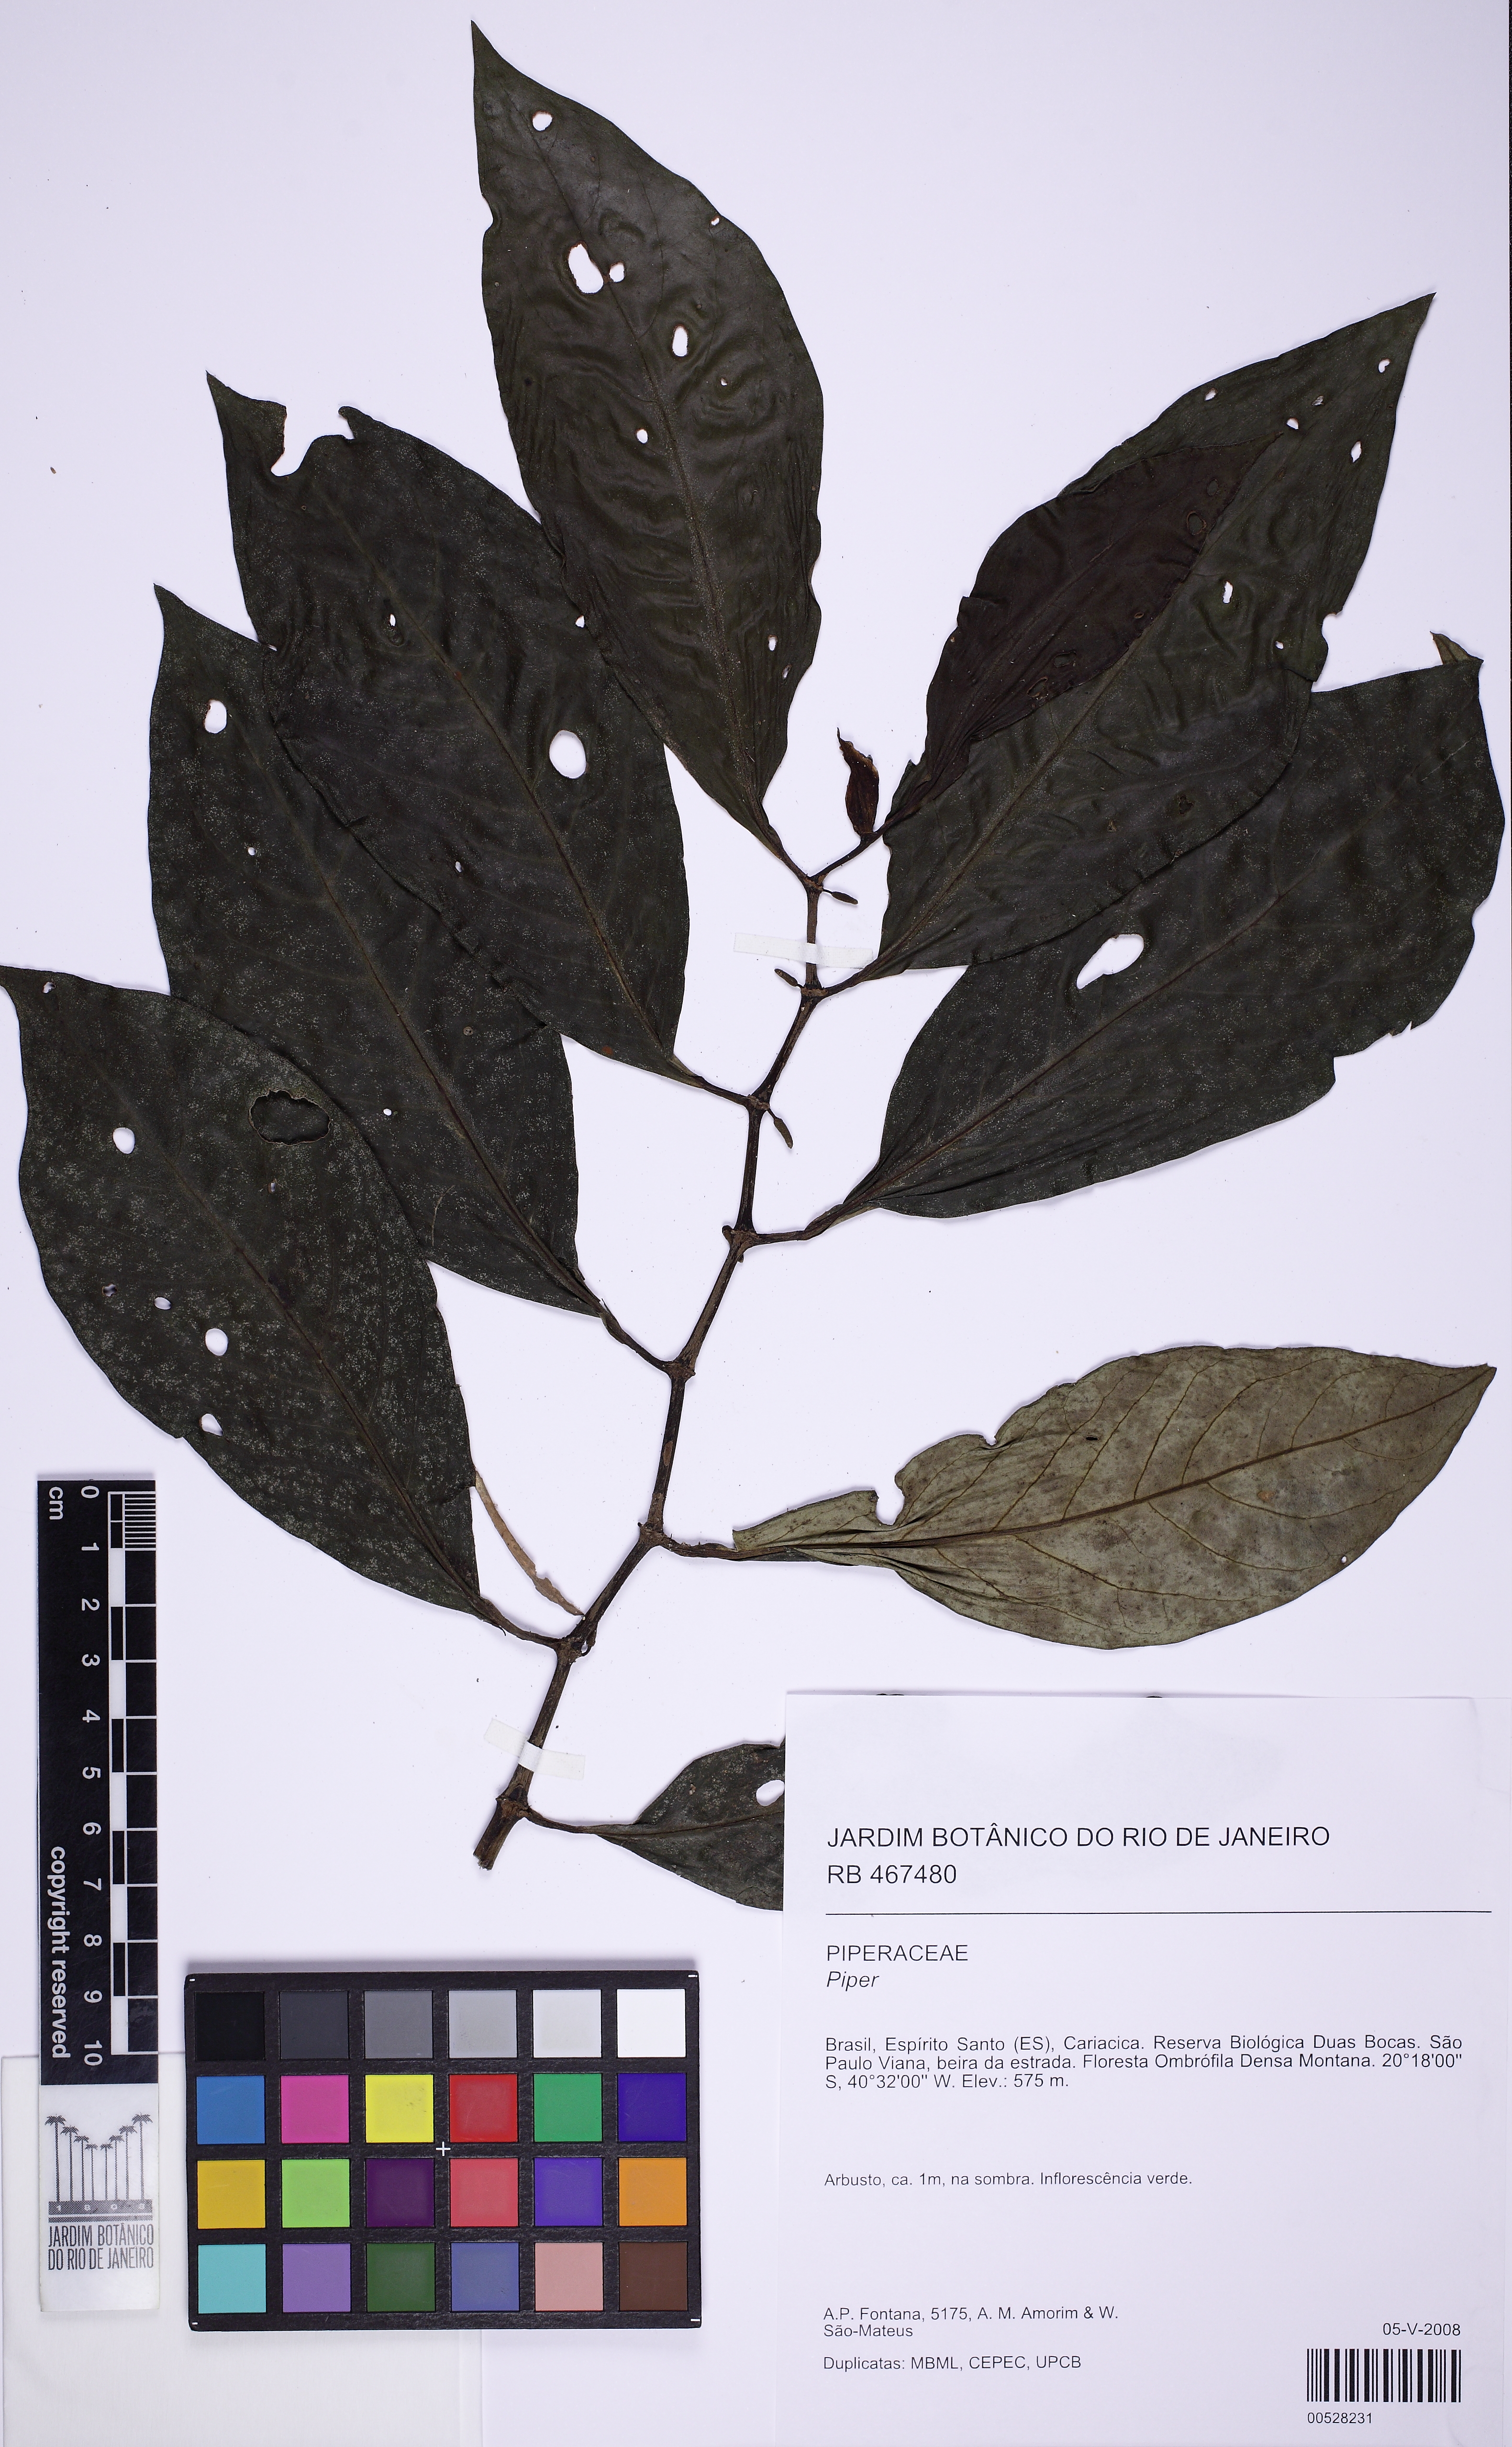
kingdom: Plantae
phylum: Tracheophyta
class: Magnoliopsida
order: Piperales
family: Piperaceae
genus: Peperomia
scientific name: Peperomia
